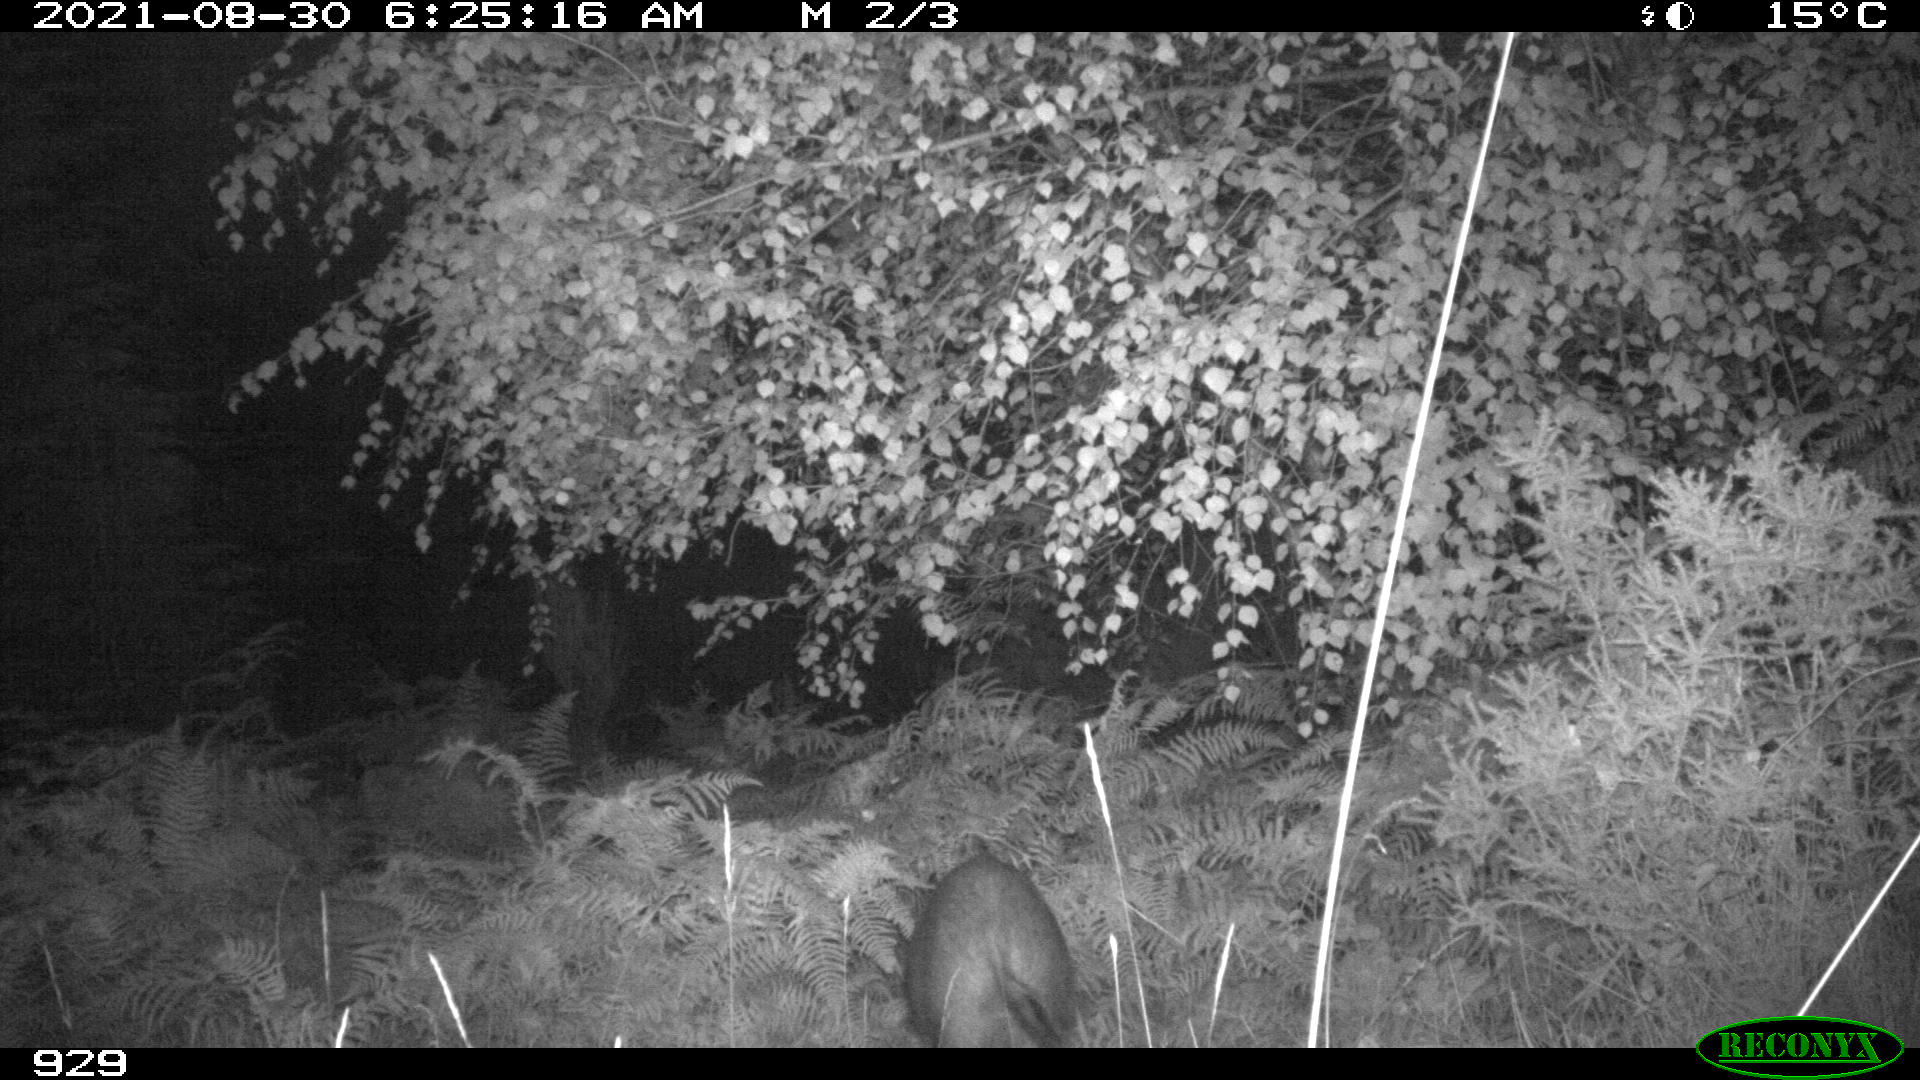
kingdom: Animalia
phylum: Chordata
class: Mammalia
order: Artiodactyla
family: Suidae
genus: Sus
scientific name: Sus scrofa
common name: Wild boar
